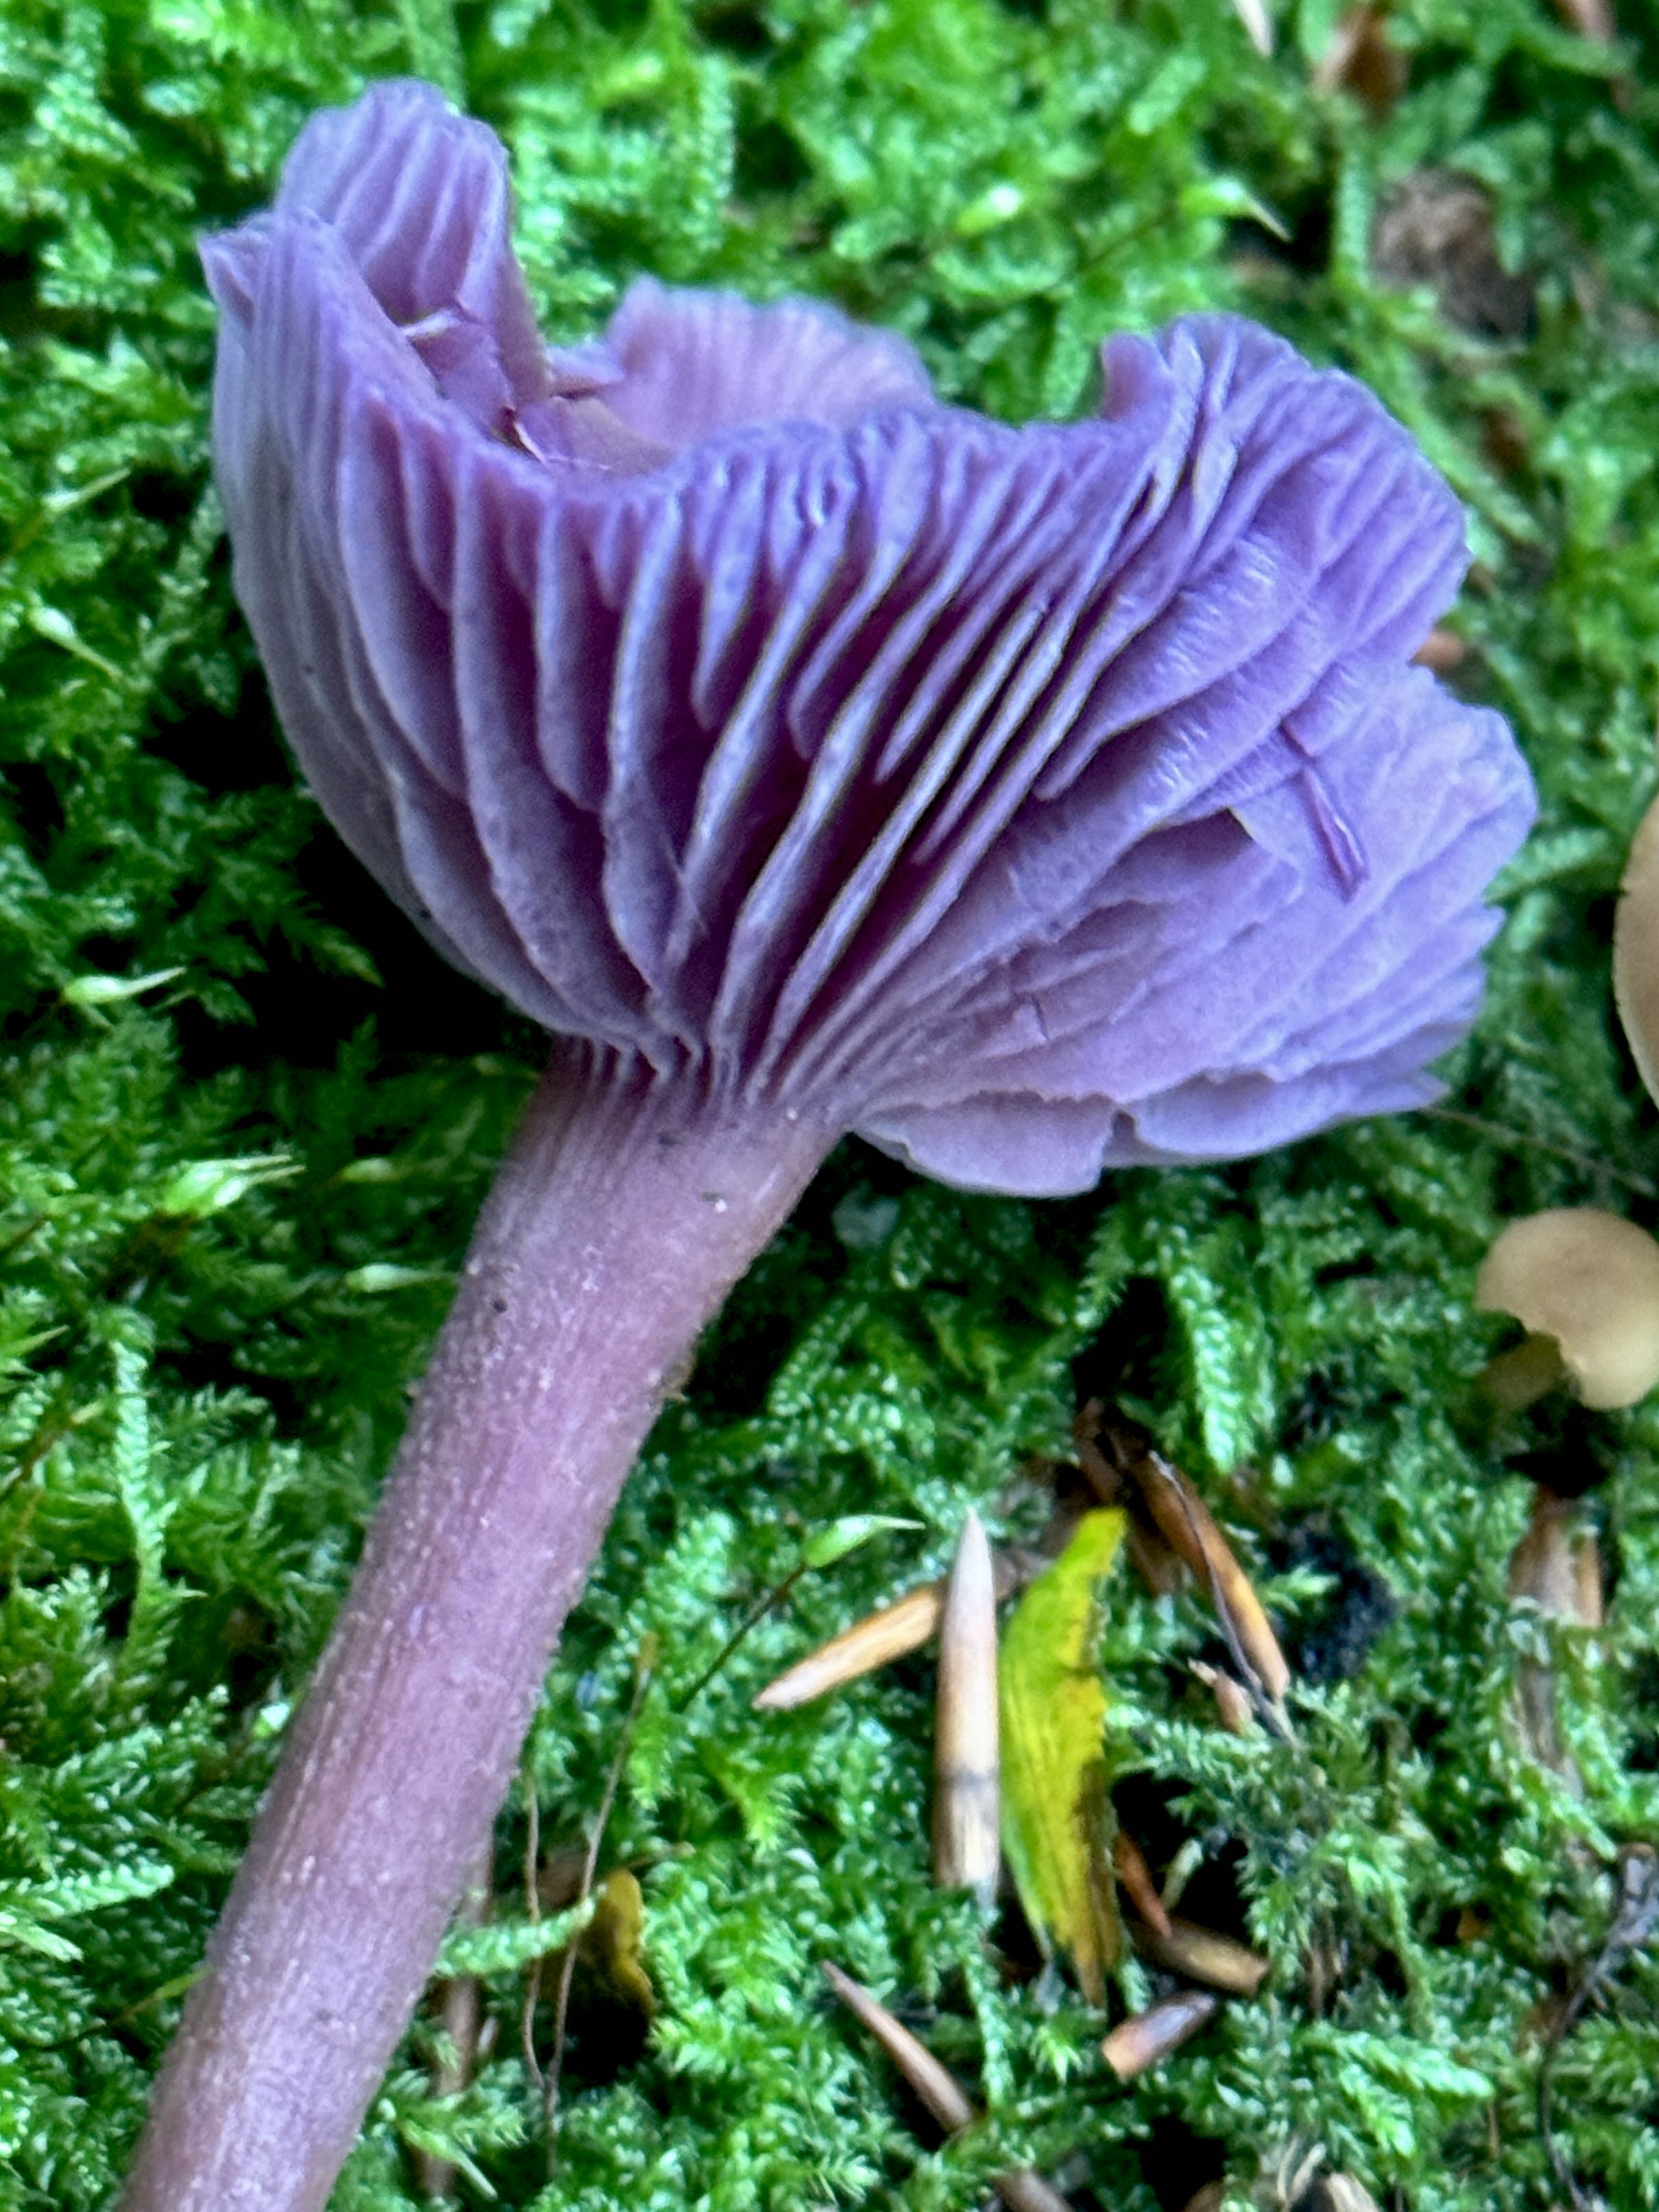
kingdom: Fungi
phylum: Basidiomycota
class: Agaricomycetes
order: Agaricales
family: Hydnangiaceae
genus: Laccaria
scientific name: Laccaria amethystina
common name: violet ametysthat
